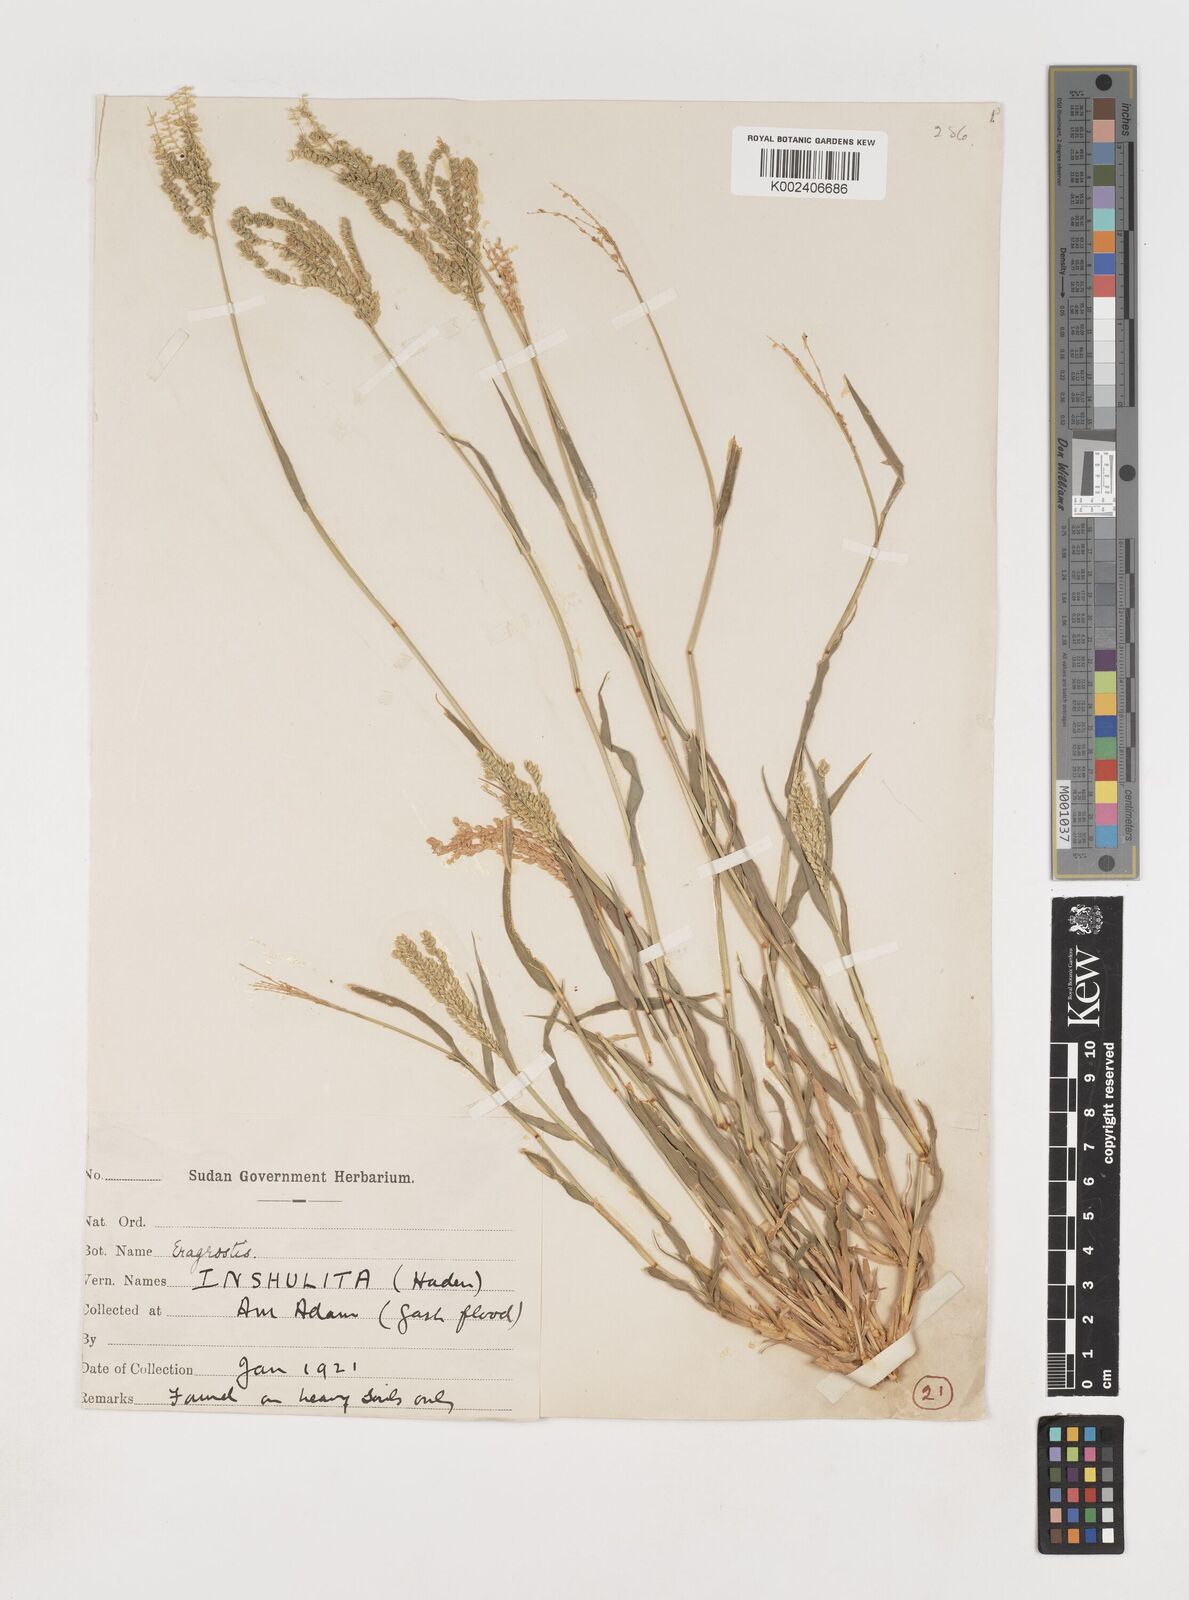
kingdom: Plantae
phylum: Tracheophyta
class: Liliopsida
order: Poales
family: Poaceae
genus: Coelachyrum
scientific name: Coelachyrum brevifolium
